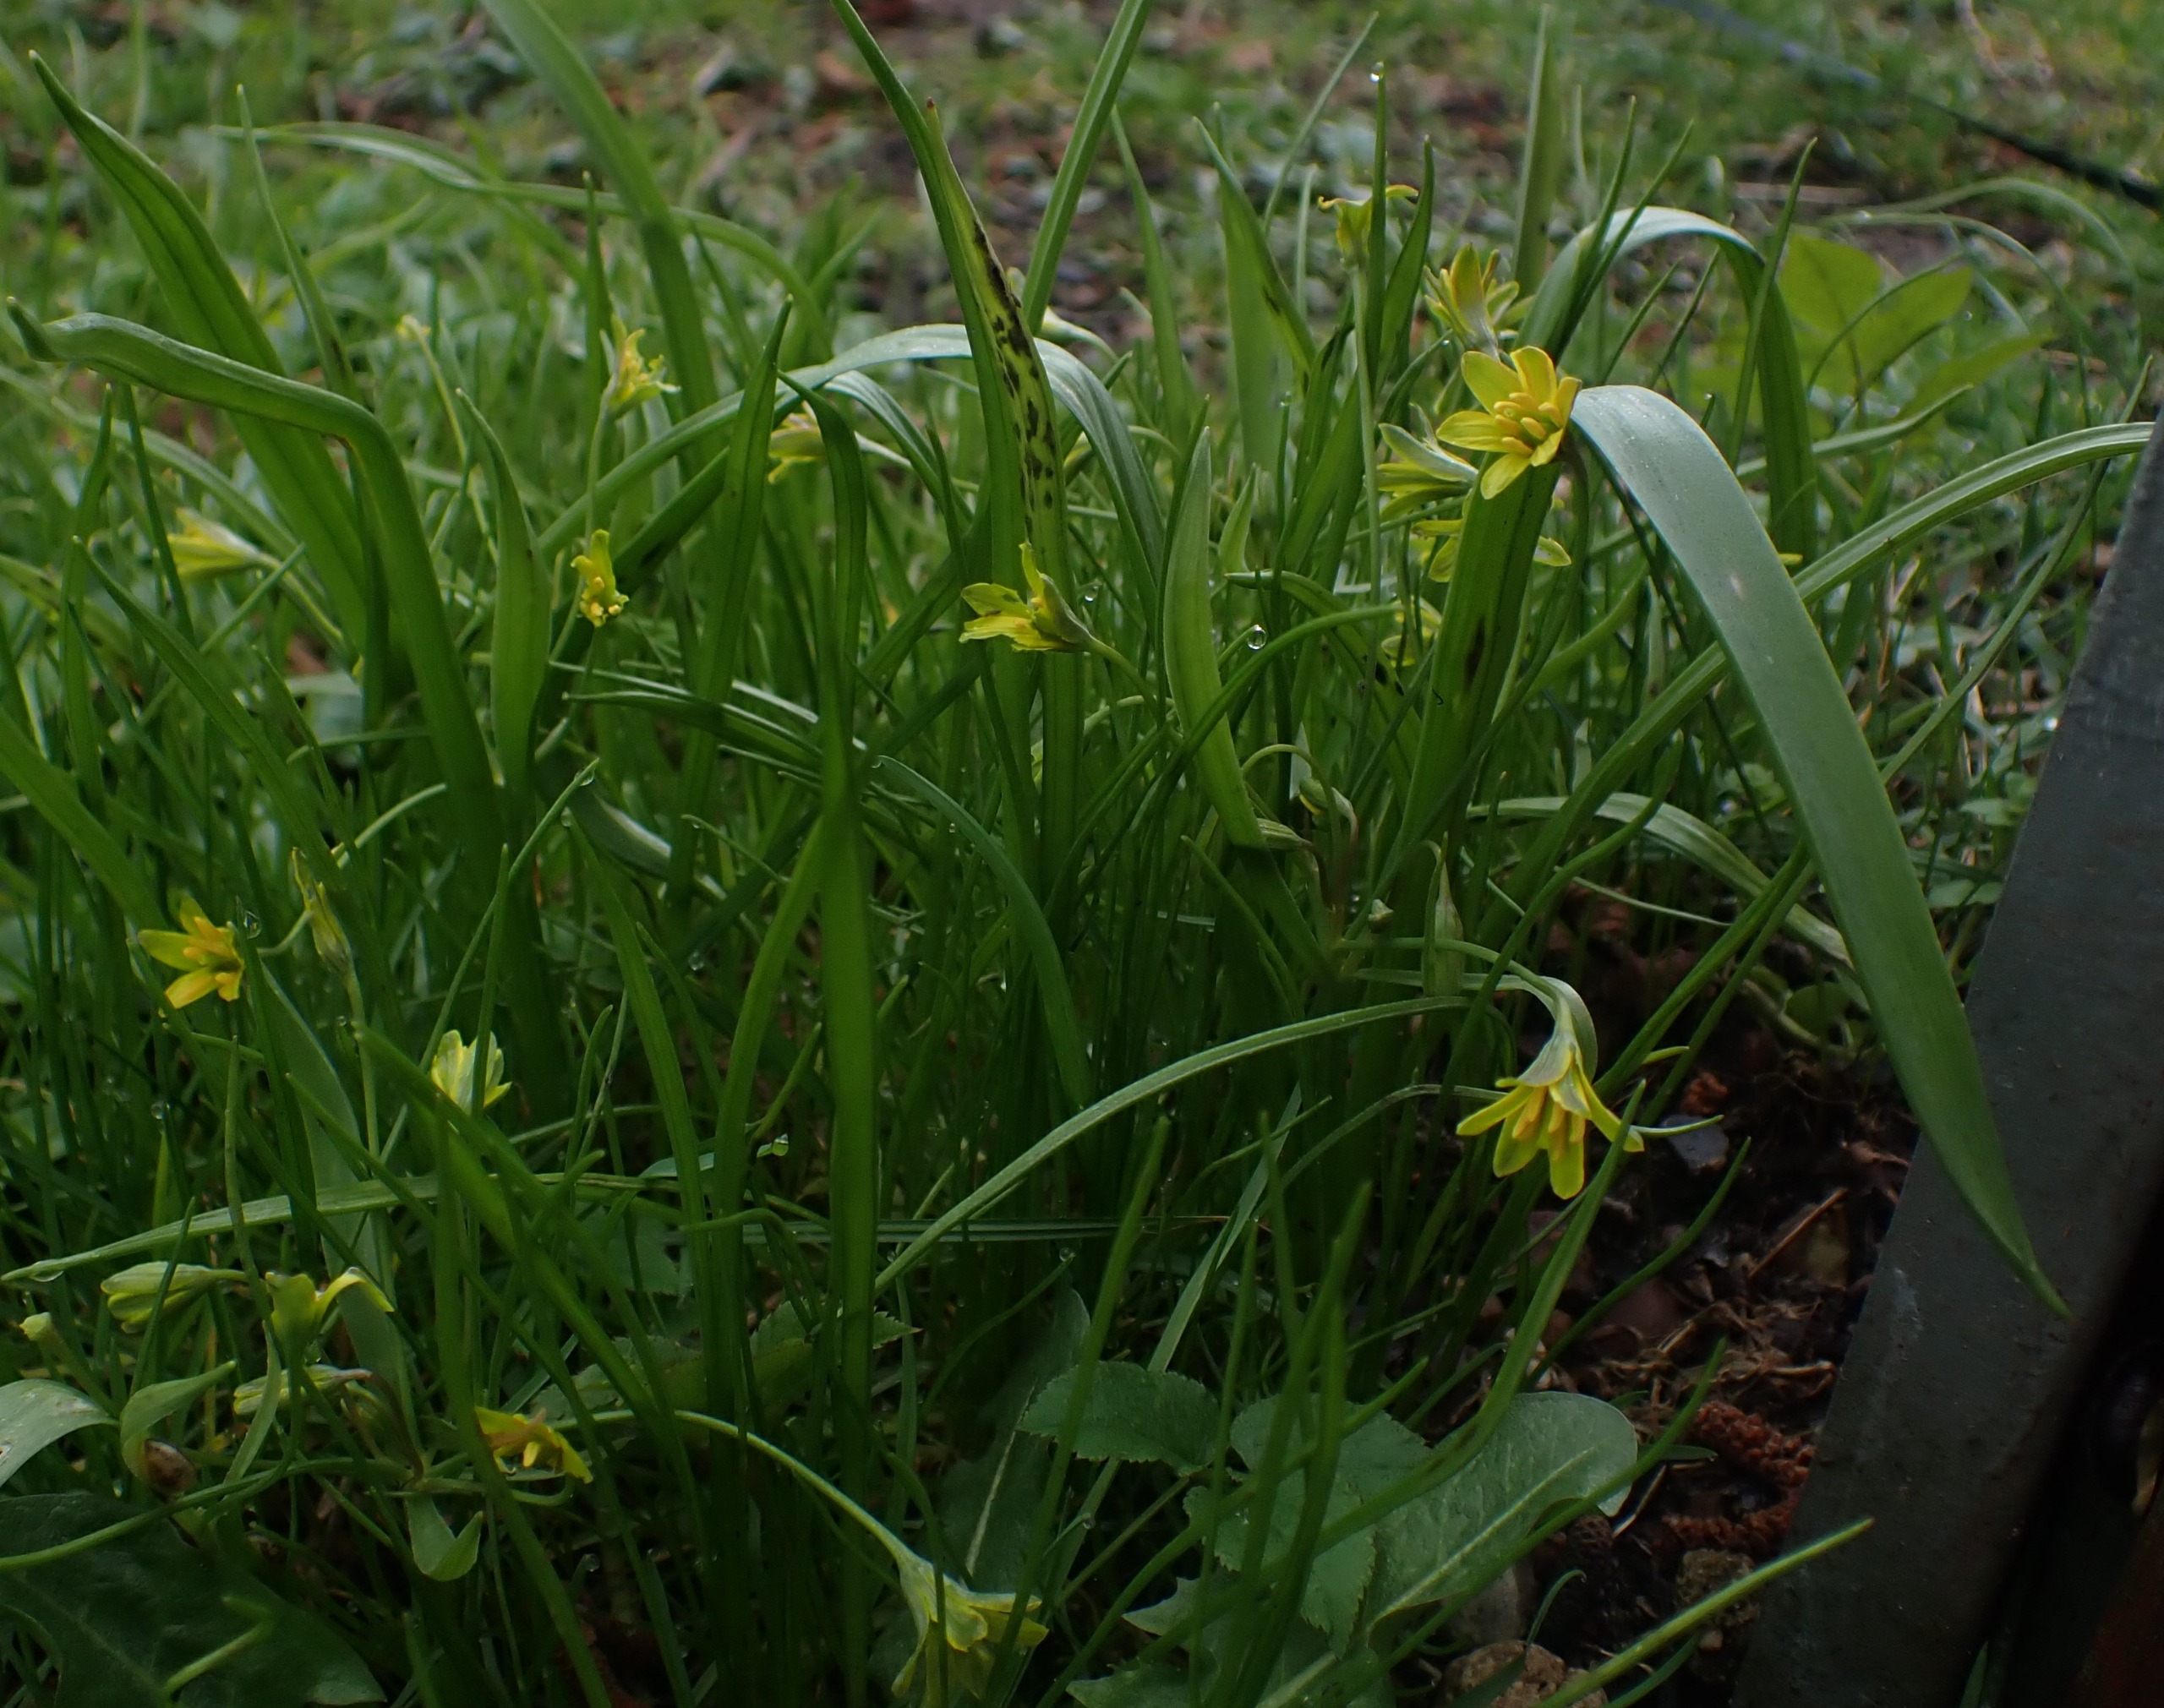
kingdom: Plantae
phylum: Tracheophyta
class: Liliopsida
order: Liliales
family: Liliaceae
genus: Gagea
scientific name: Gagea lutea
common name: Almindelig guldstjerne
